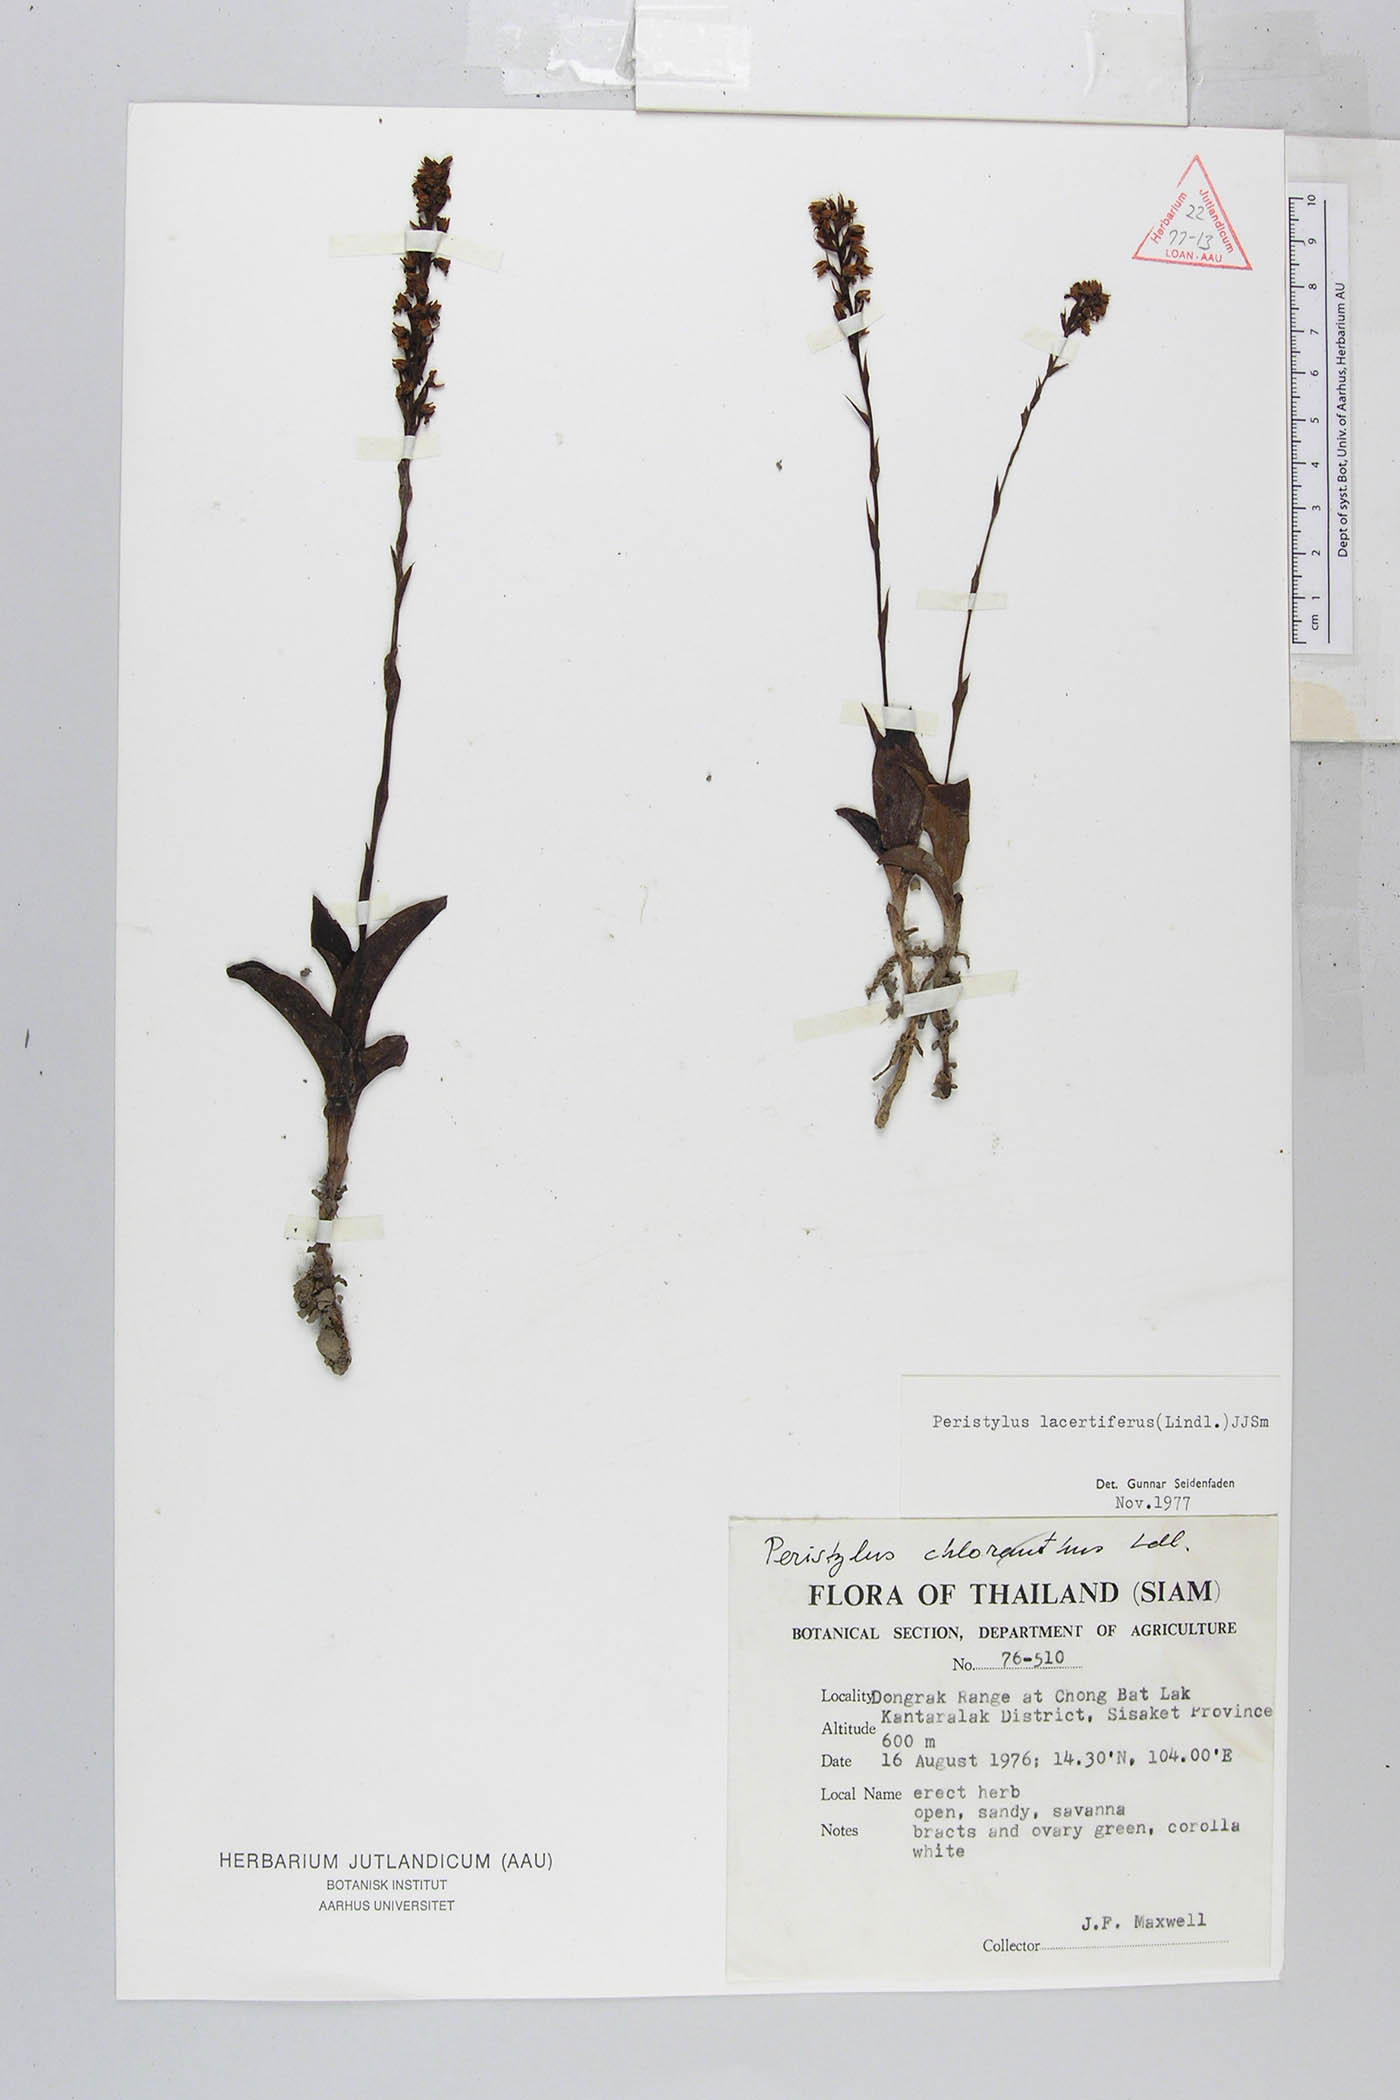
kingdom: Plantae
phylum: Tracheophyta
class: Liliopsida
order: Asparagales
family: Orchidaceae
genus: Peristylus
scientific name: Peristylus lacertifer
